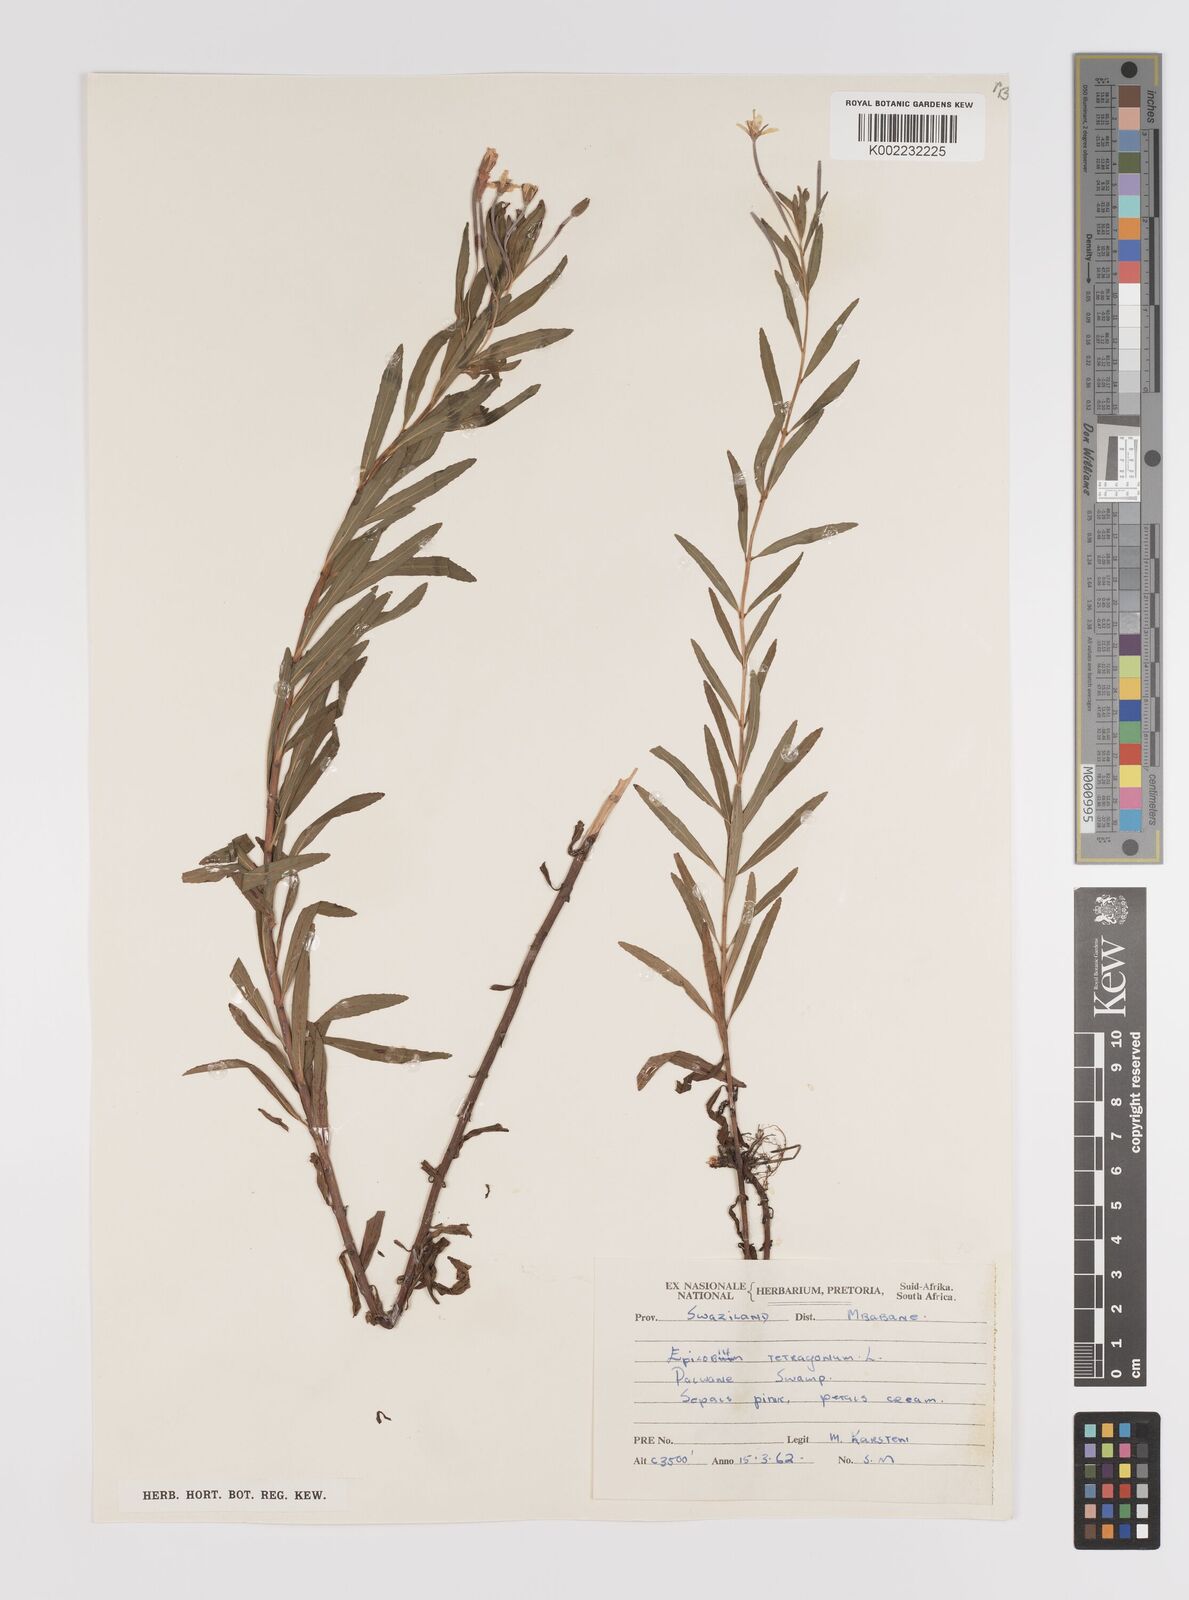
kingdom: Plantae
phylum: Tracheophyta
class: Magnoliopsida
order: Myrtales
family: Onagraceae
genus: Epilobium
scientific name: Epilobium salignum
